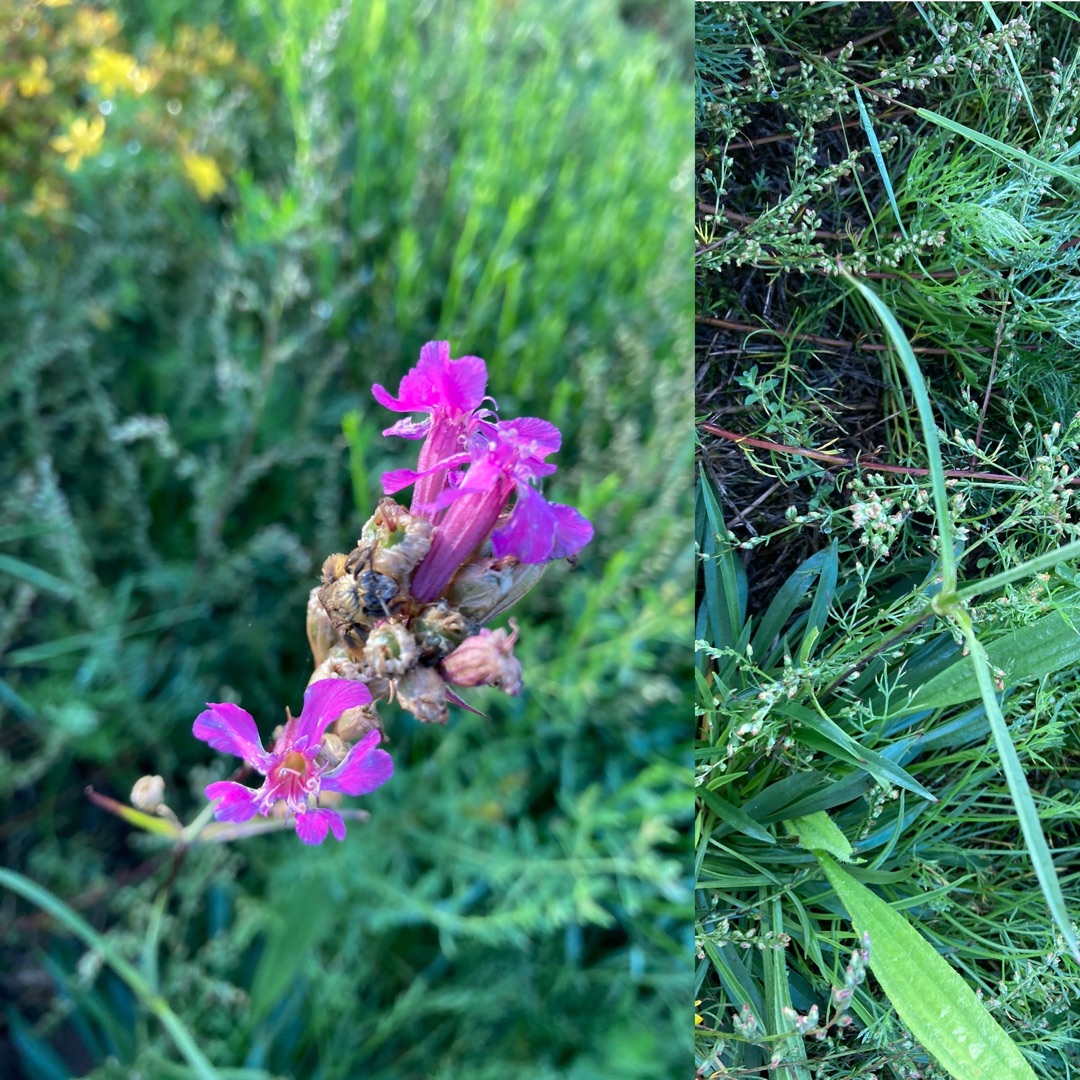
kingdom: Plantae
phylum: Tracheophyta
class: Magnoliopsida
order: Caryophyllales
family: Caryophyllaceae
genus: Viscaria
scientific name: Viscaria vulgaris
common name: Tjærenellike
